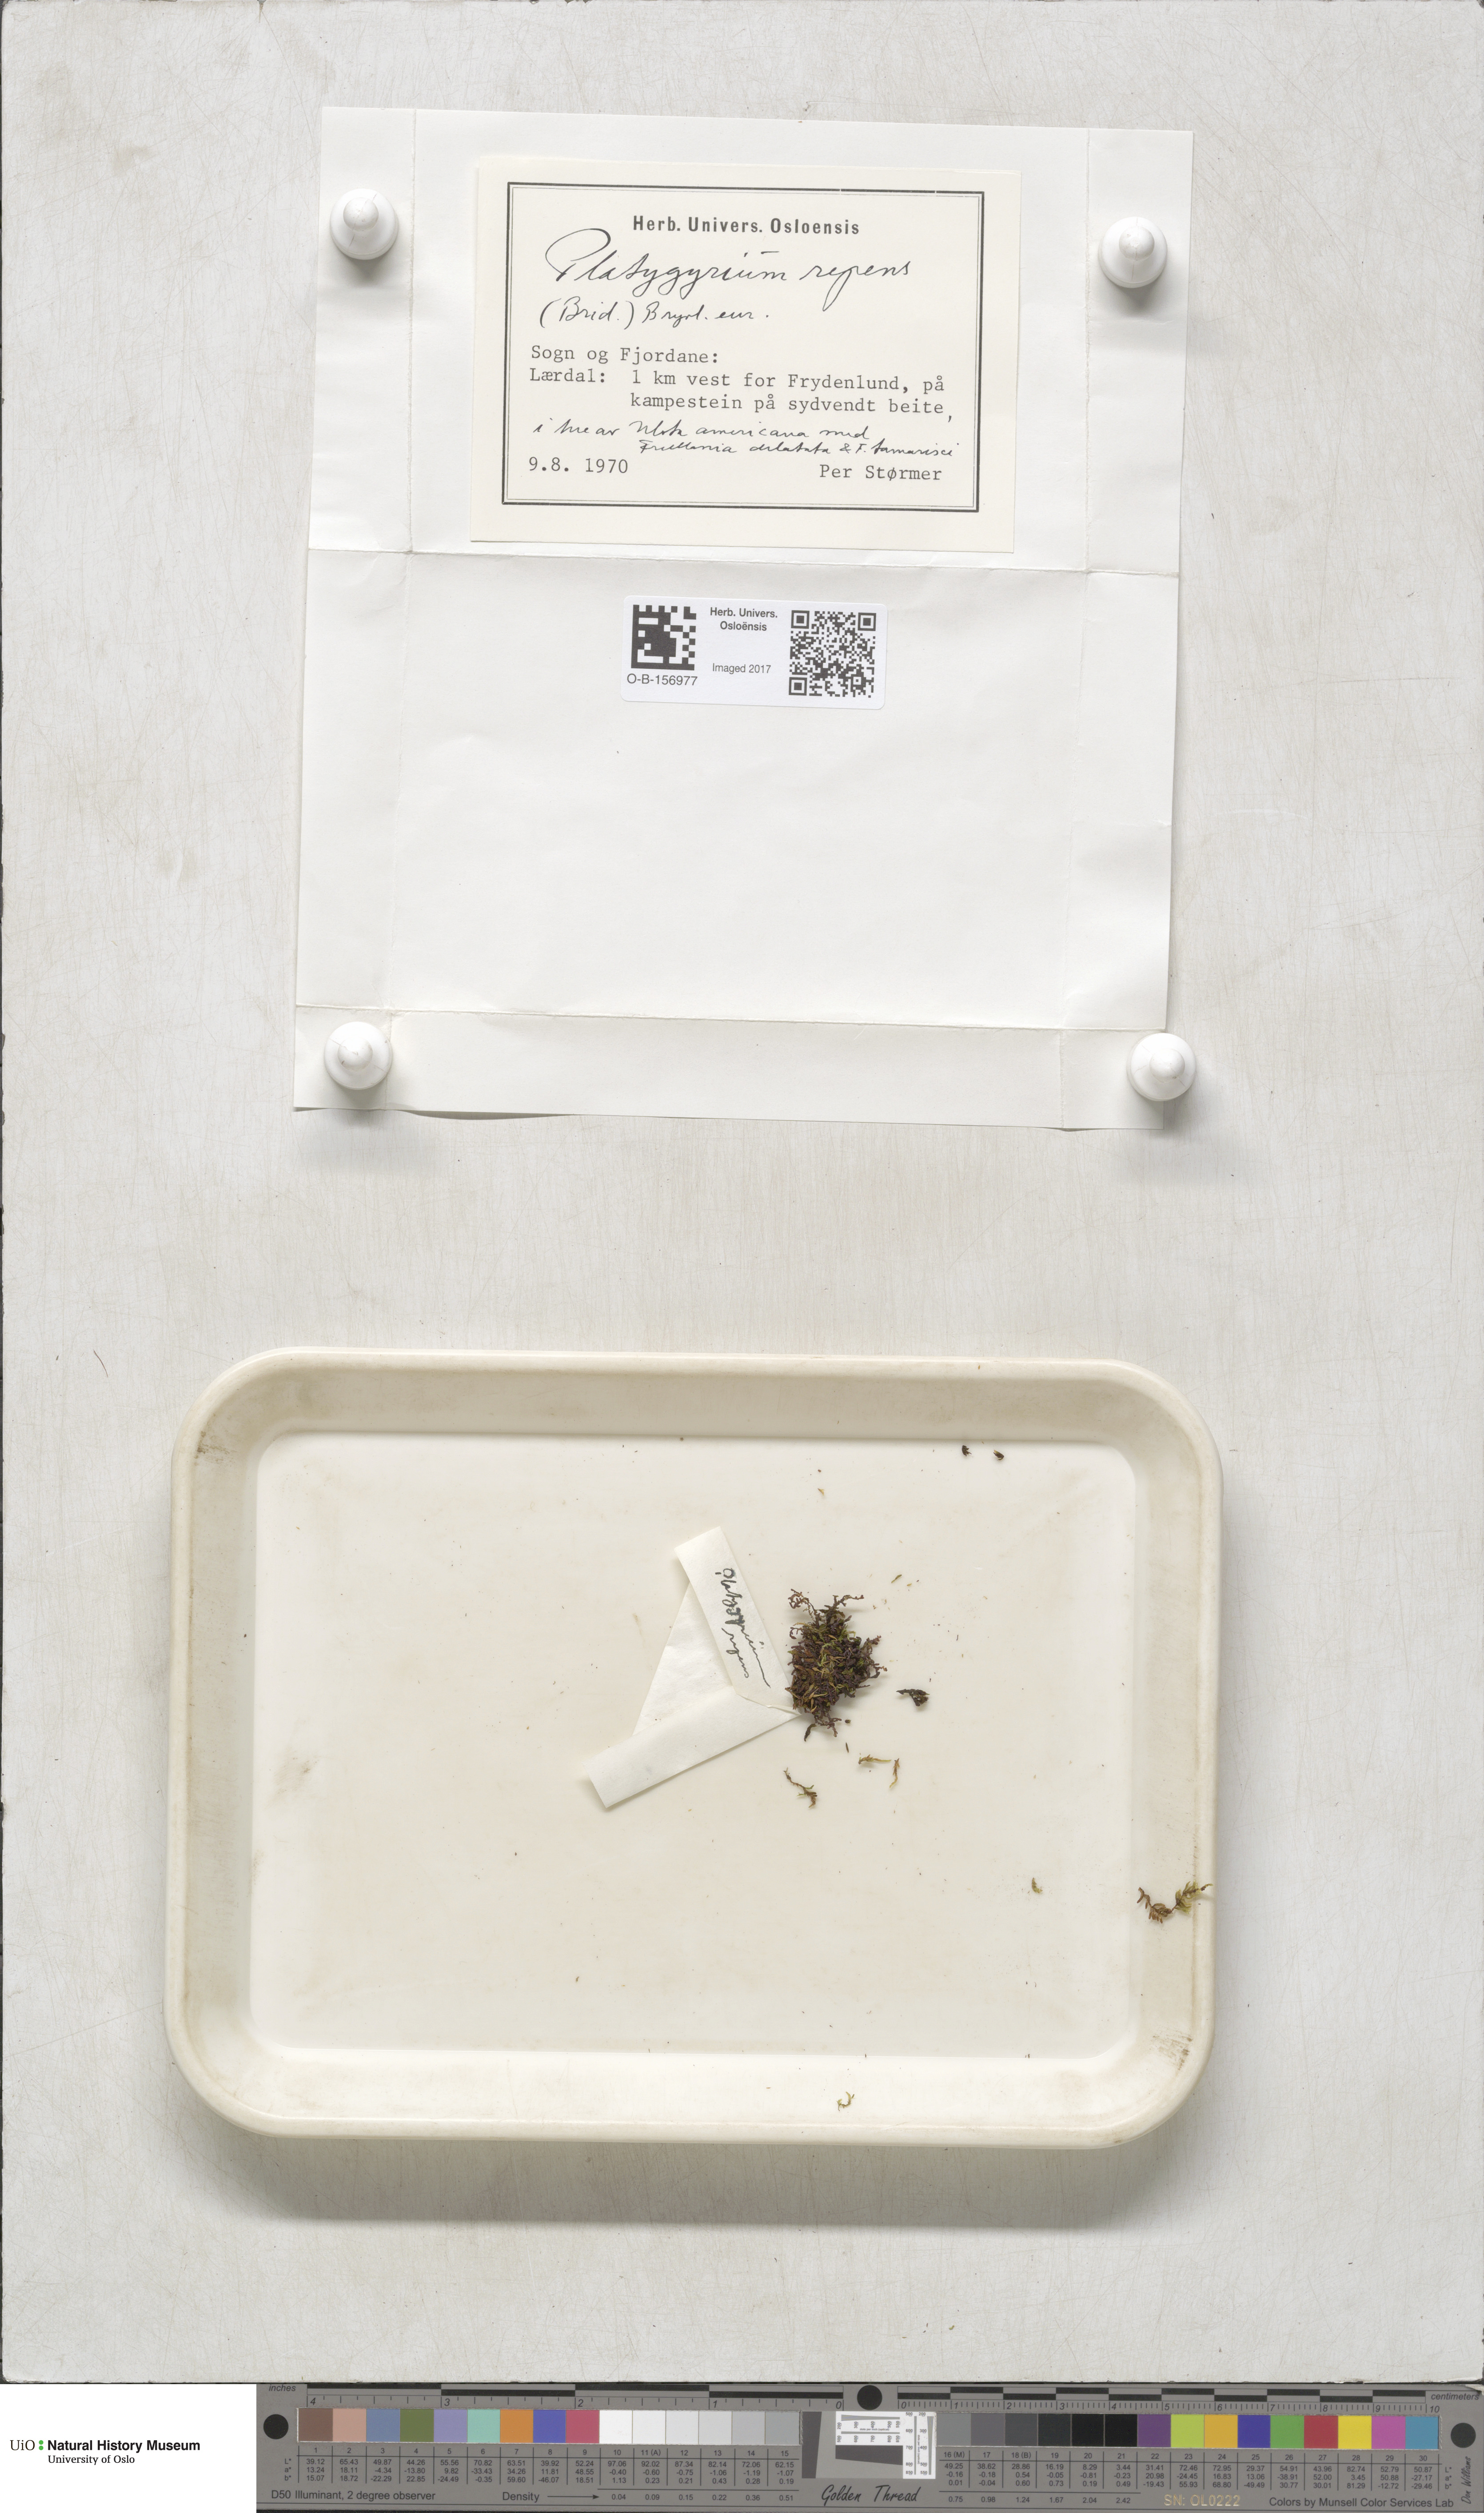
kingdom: Plantae
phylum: Bryophyta
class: Bryopsida
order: Hypnales
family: Pylaisiadelphaceae
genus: Platygyrium
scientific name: Platygyrium repens
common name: Flat-brocade moss
